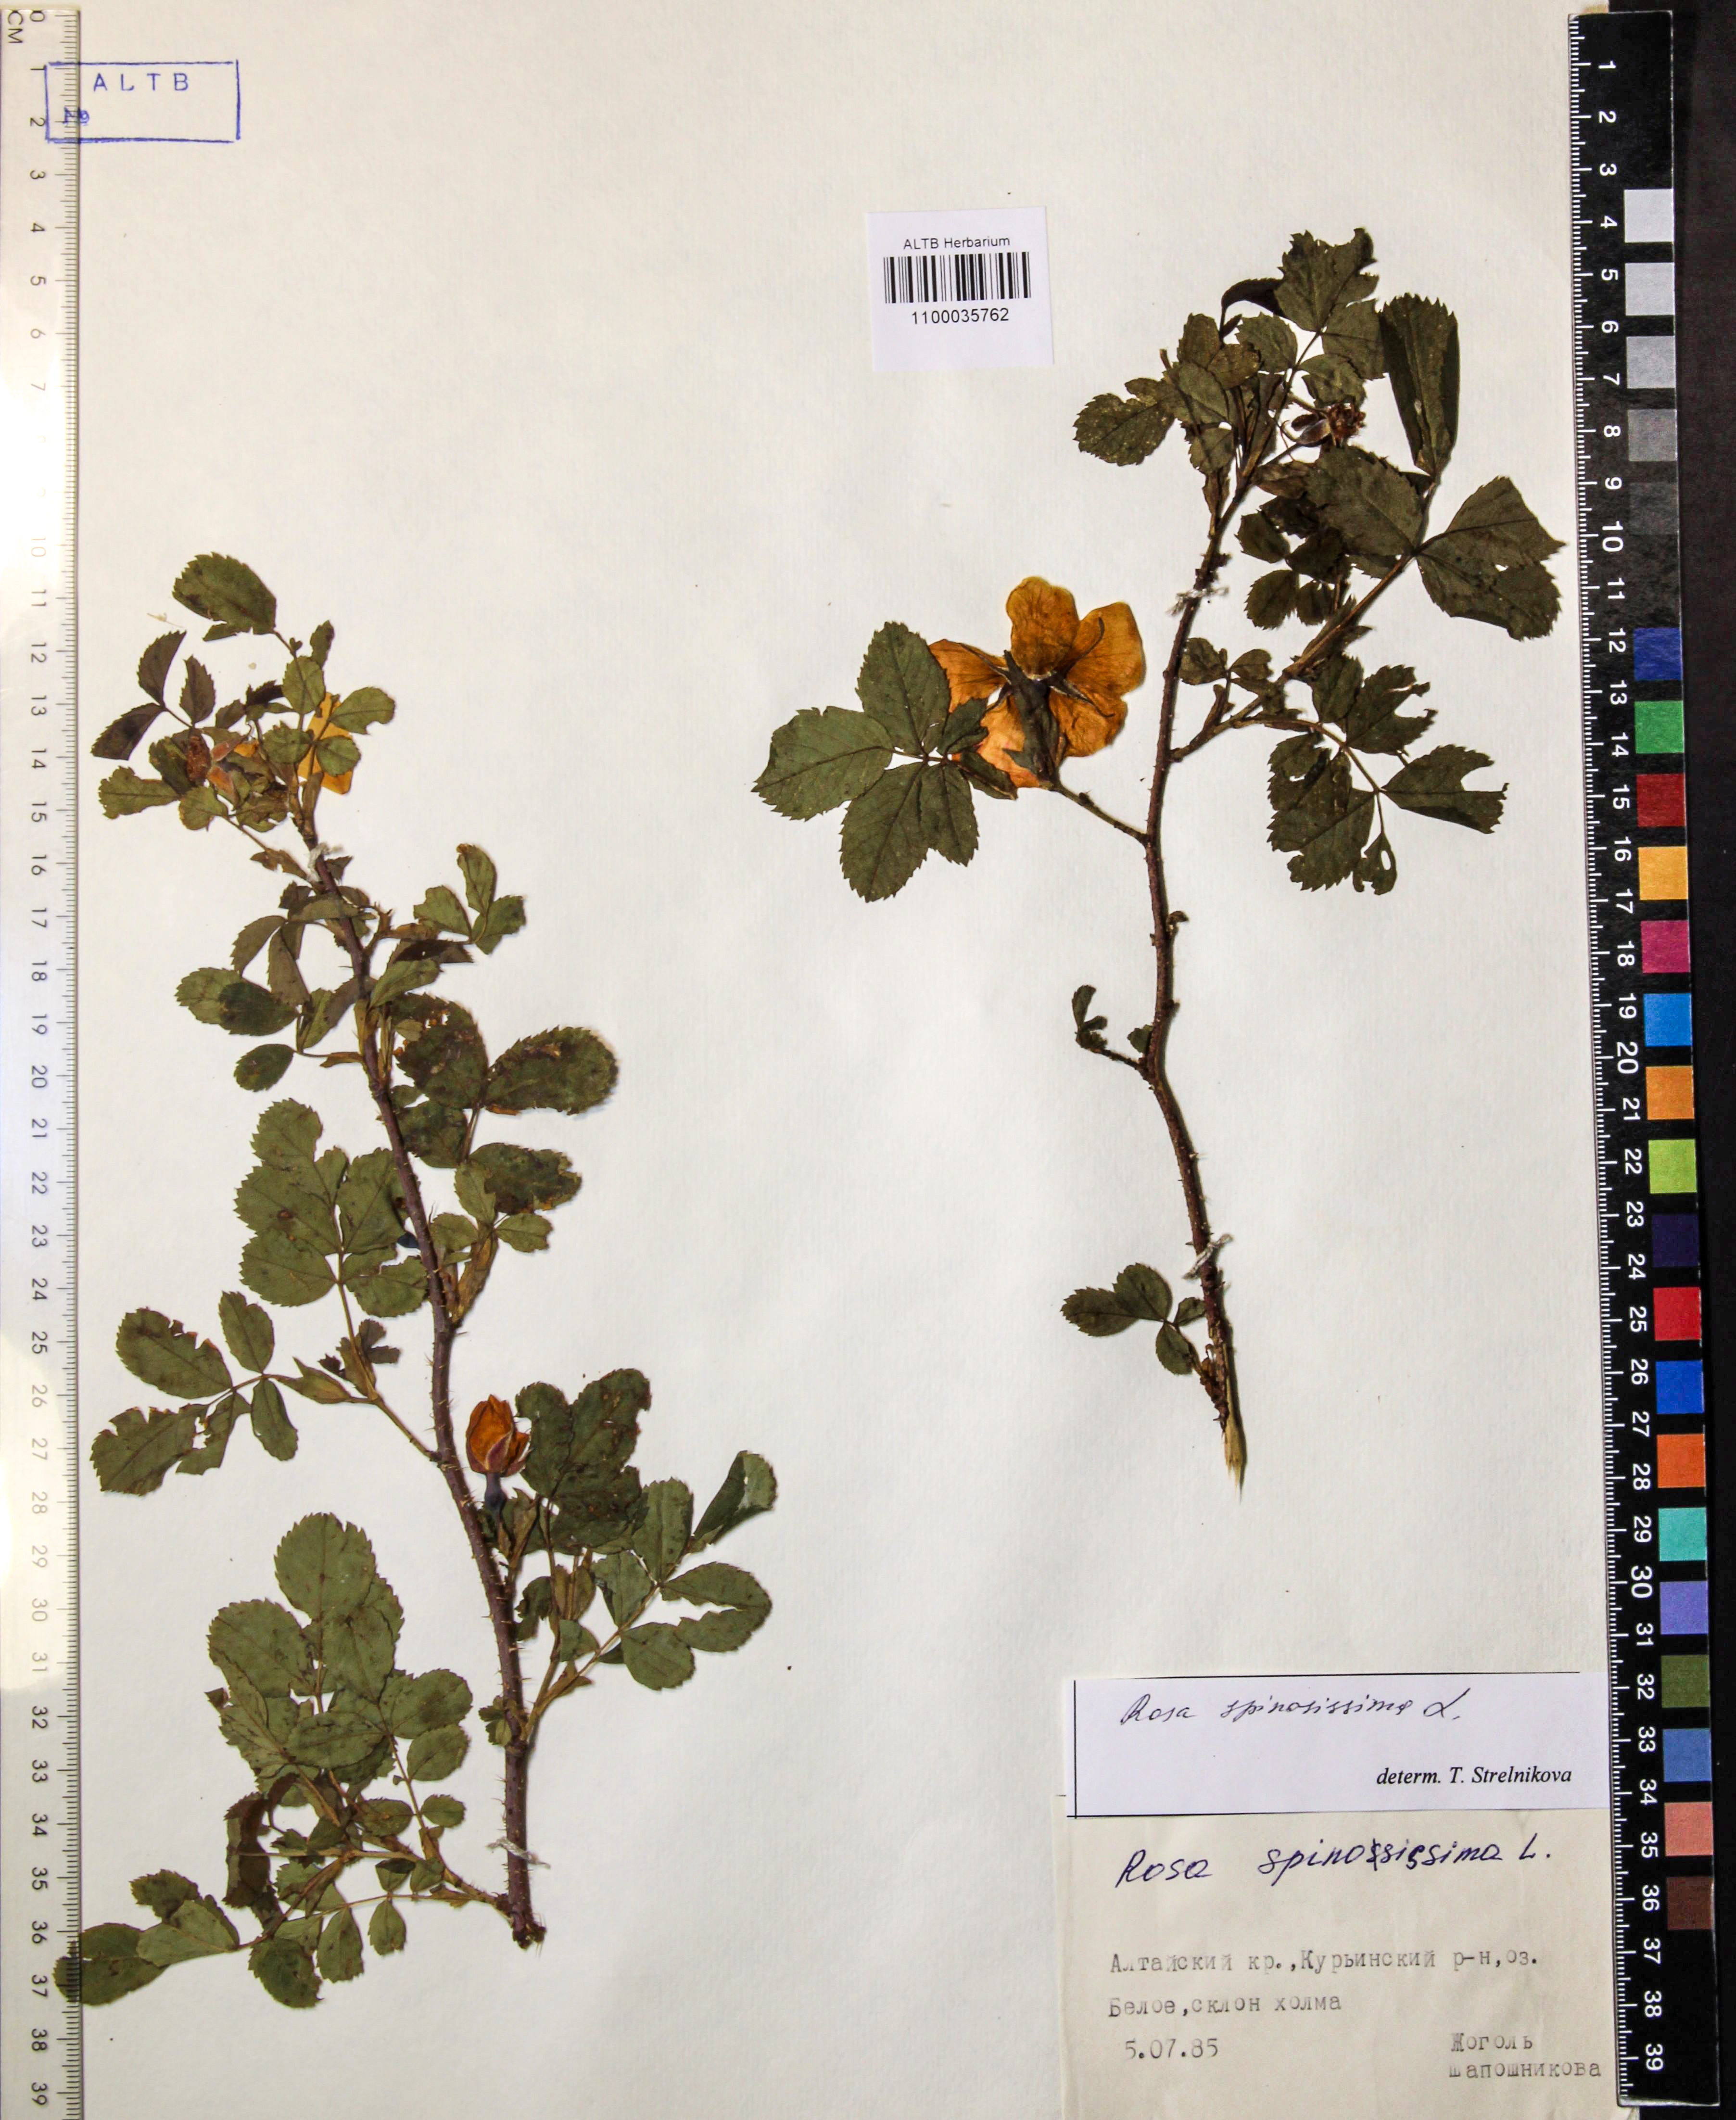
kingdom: Plantae
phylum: Tracheophyta
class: Magnoliopsida
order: Rosales
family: Rosaceae
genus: Rosa
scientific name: Rosa spinosissima
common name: Burnet rose
